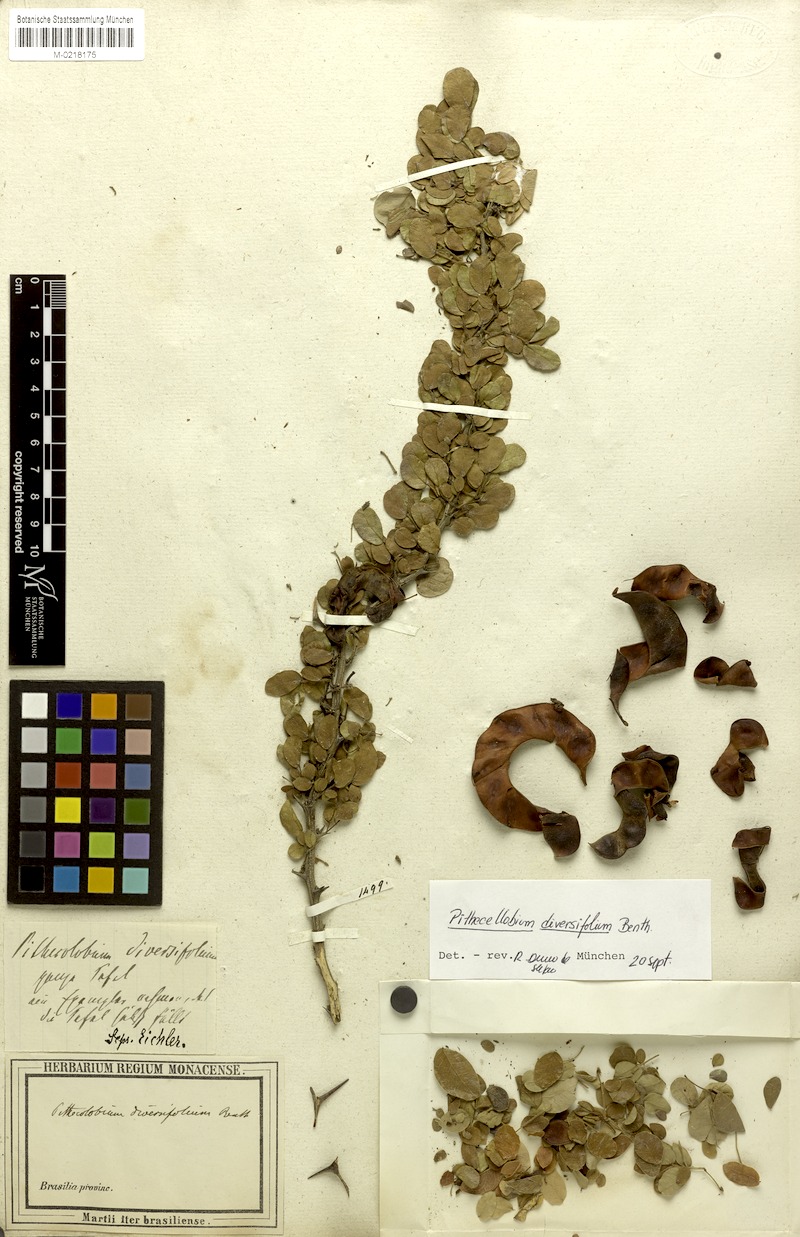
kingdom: Plantae
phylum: Tracheophyta
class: Magnoliopsida
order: Fabales
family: Fabaceae
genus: Pithecellobium
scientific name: Pithecellobium diversifolium
